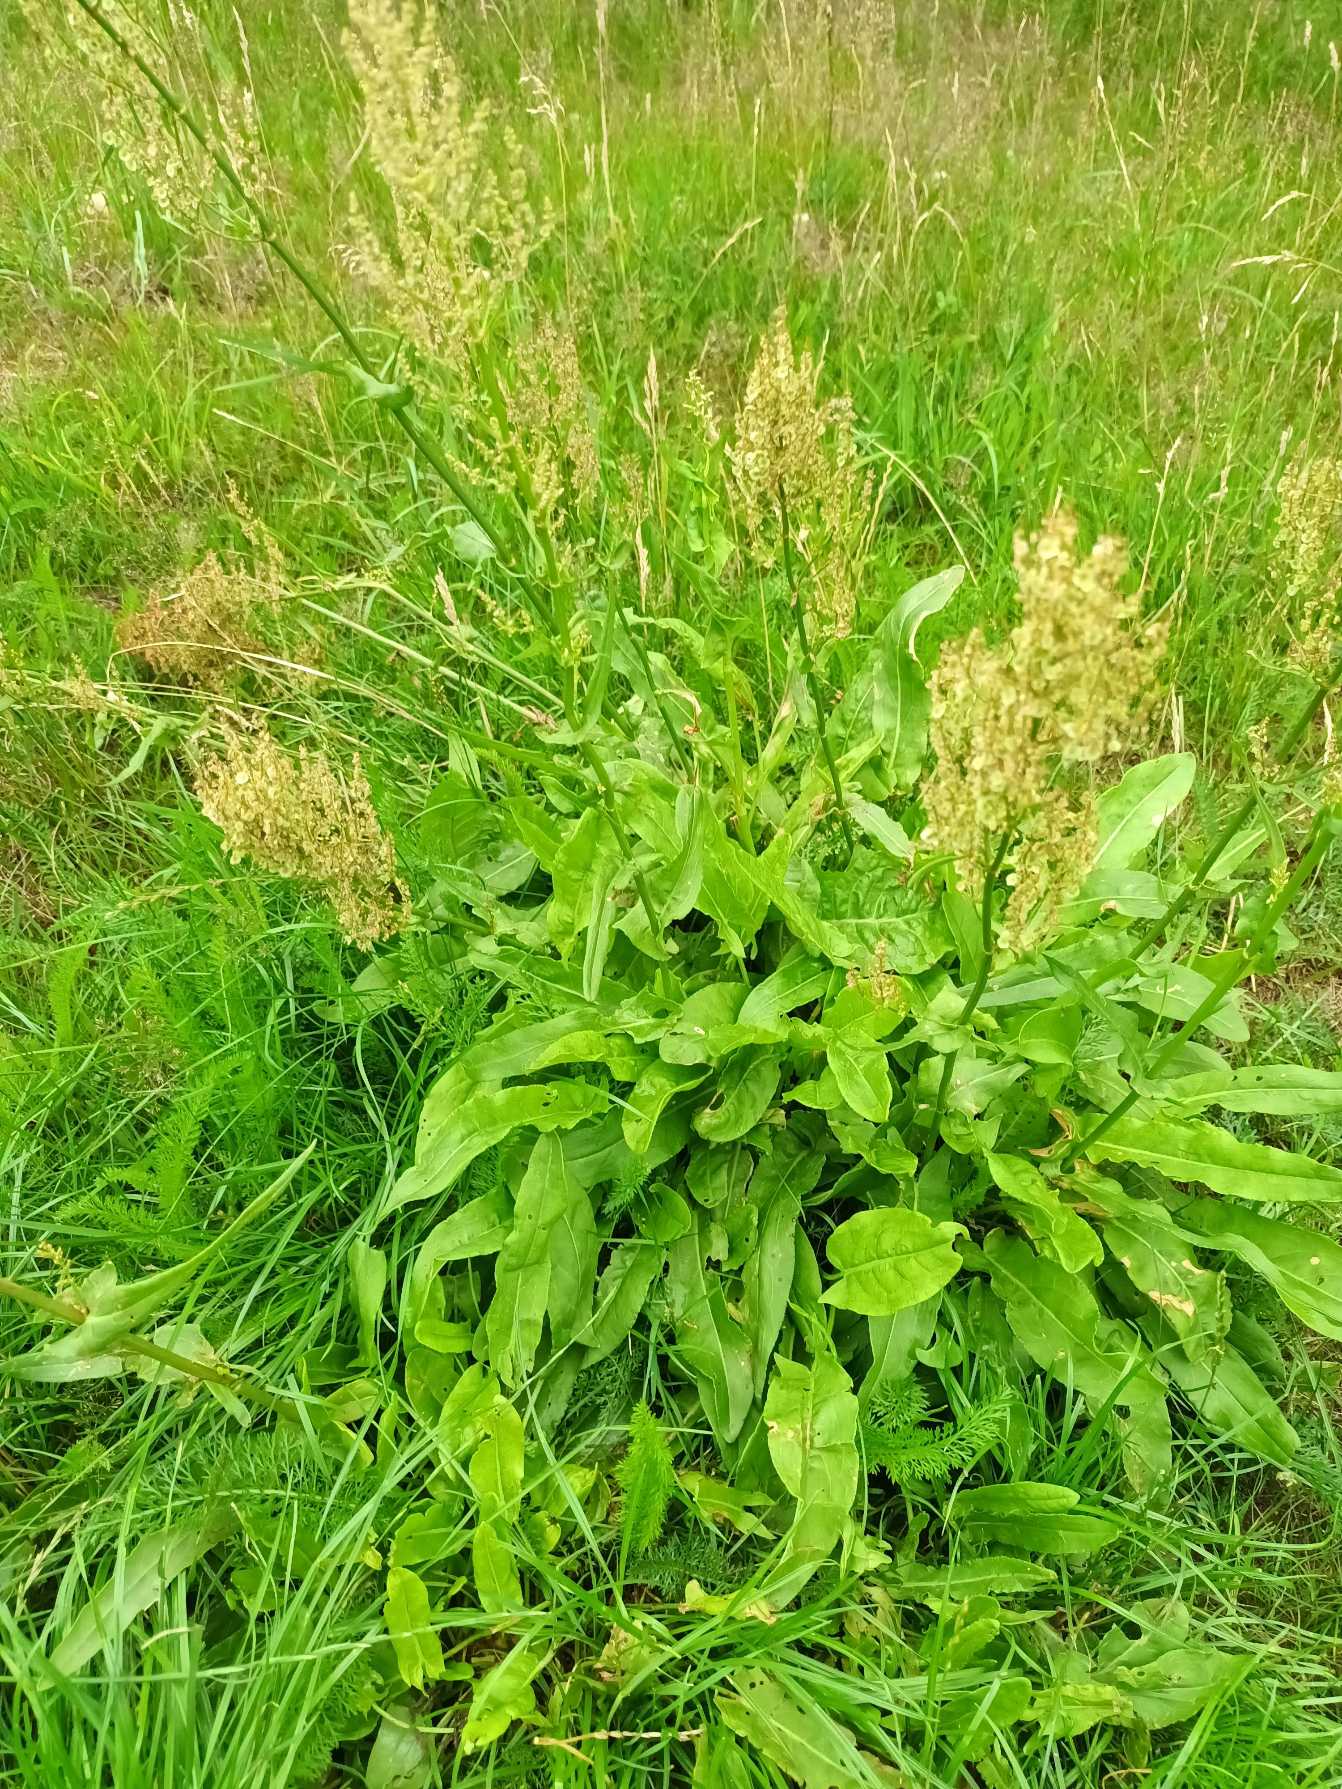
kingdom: Plantae
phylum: Tracheophyta
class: Magnoliopsida
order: Caryophyllales
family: Polygonaceae
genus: Rumex
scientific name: Rumex thyrsiflorus
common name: Dusk-syre
